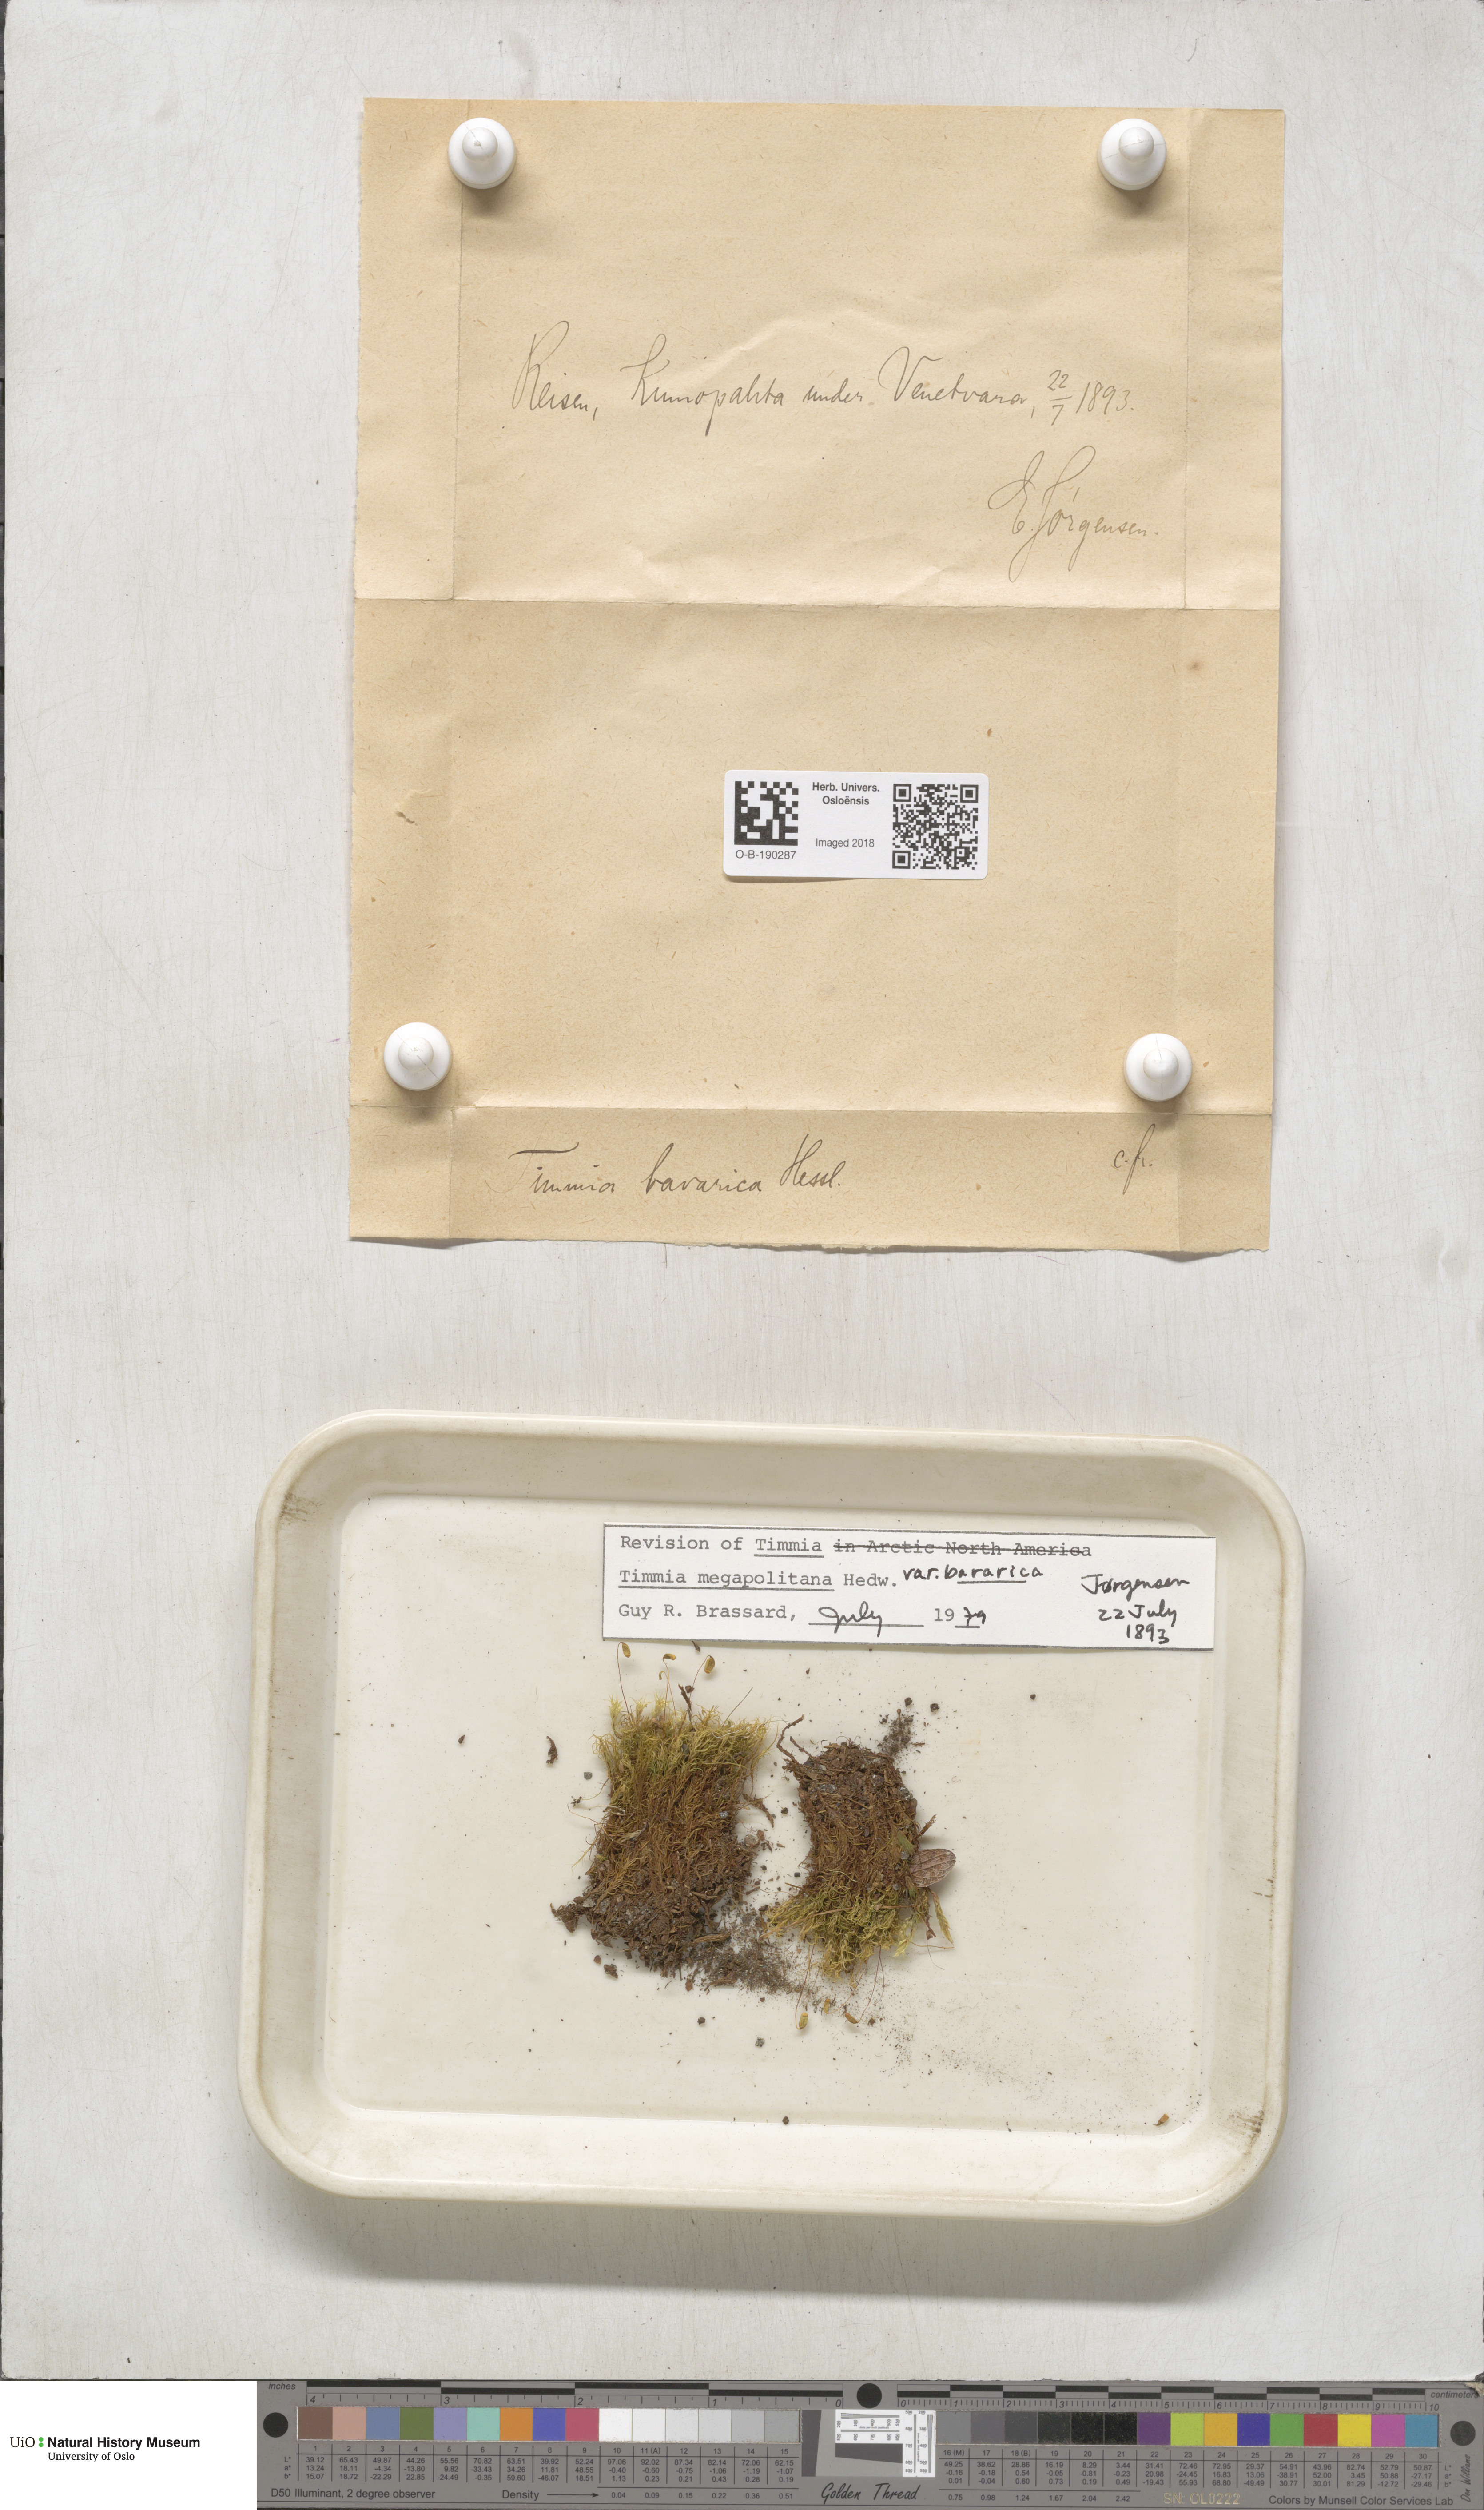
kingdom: Plantae
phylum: Bryophyta
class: Bryopsida
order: Timmiales
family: Timmiaceae
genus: Timmia
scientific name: Timmia bavarica
